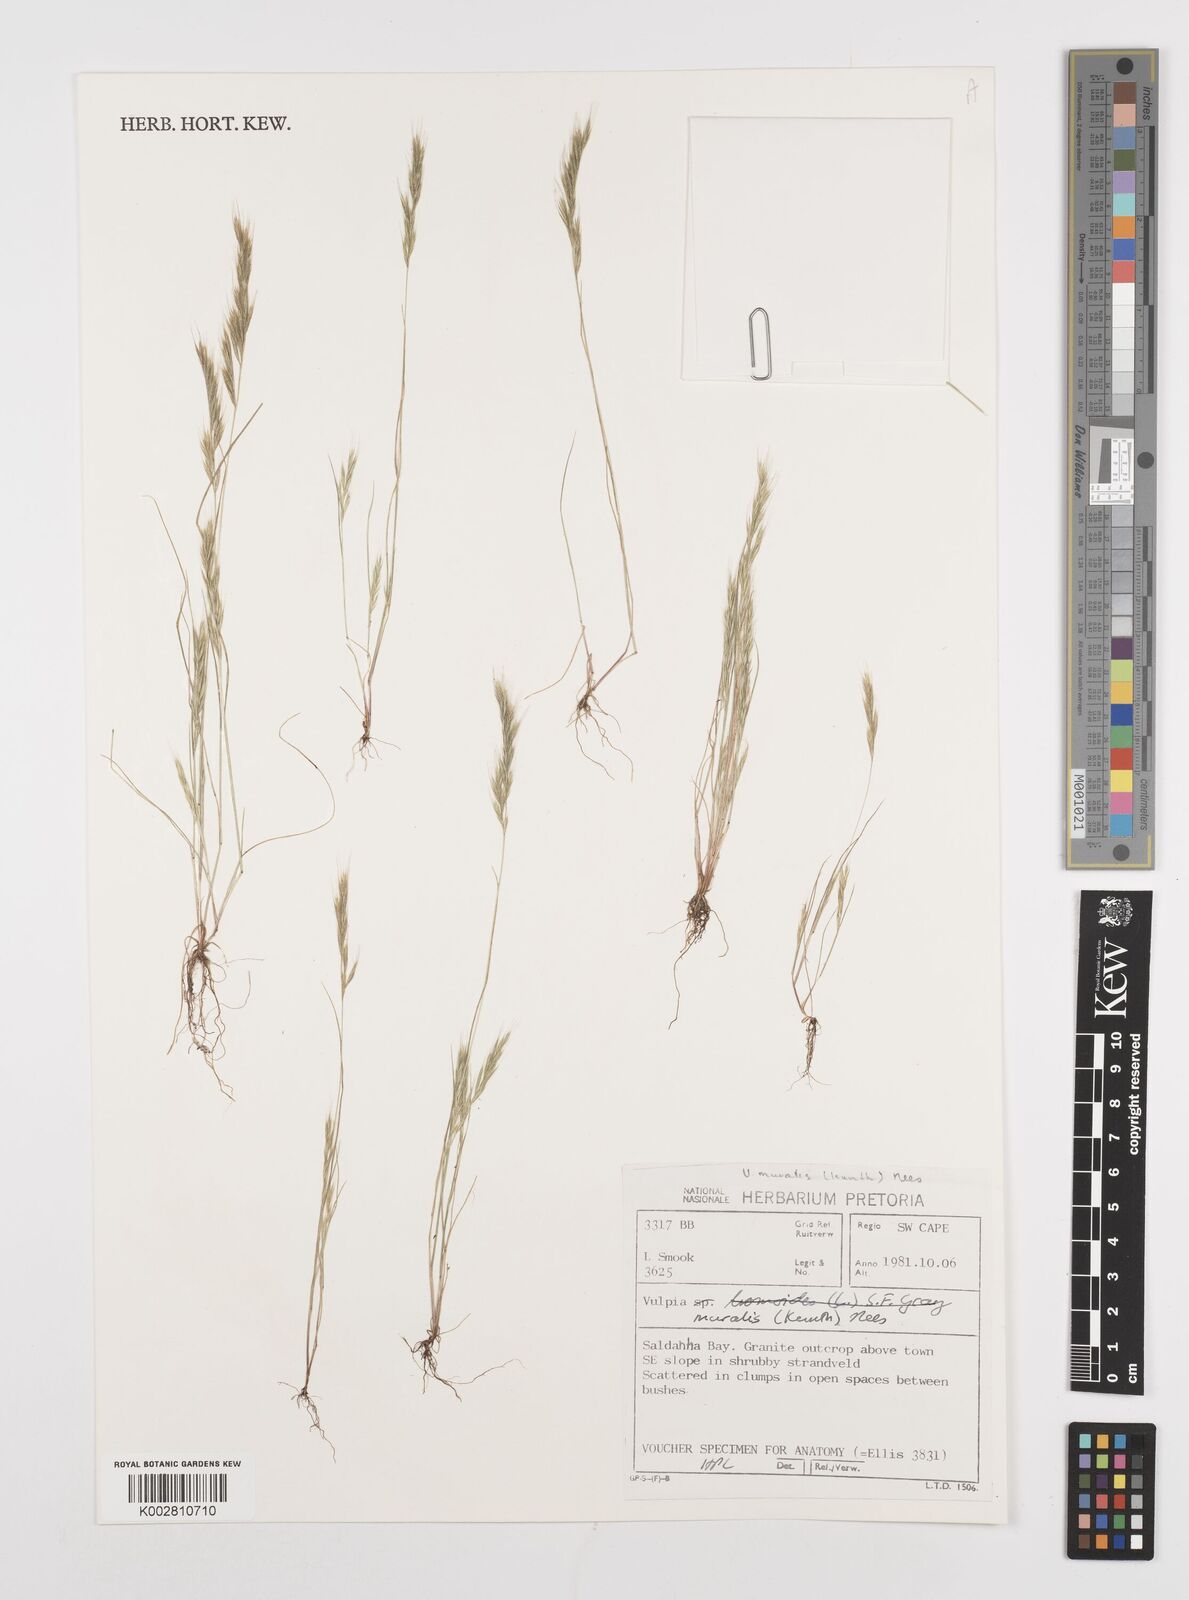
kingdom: Plantae
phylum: Tracheophyta
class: Liliopsida
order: Poales
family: Poaceae
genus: Festuca
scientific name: Festuca muralis
